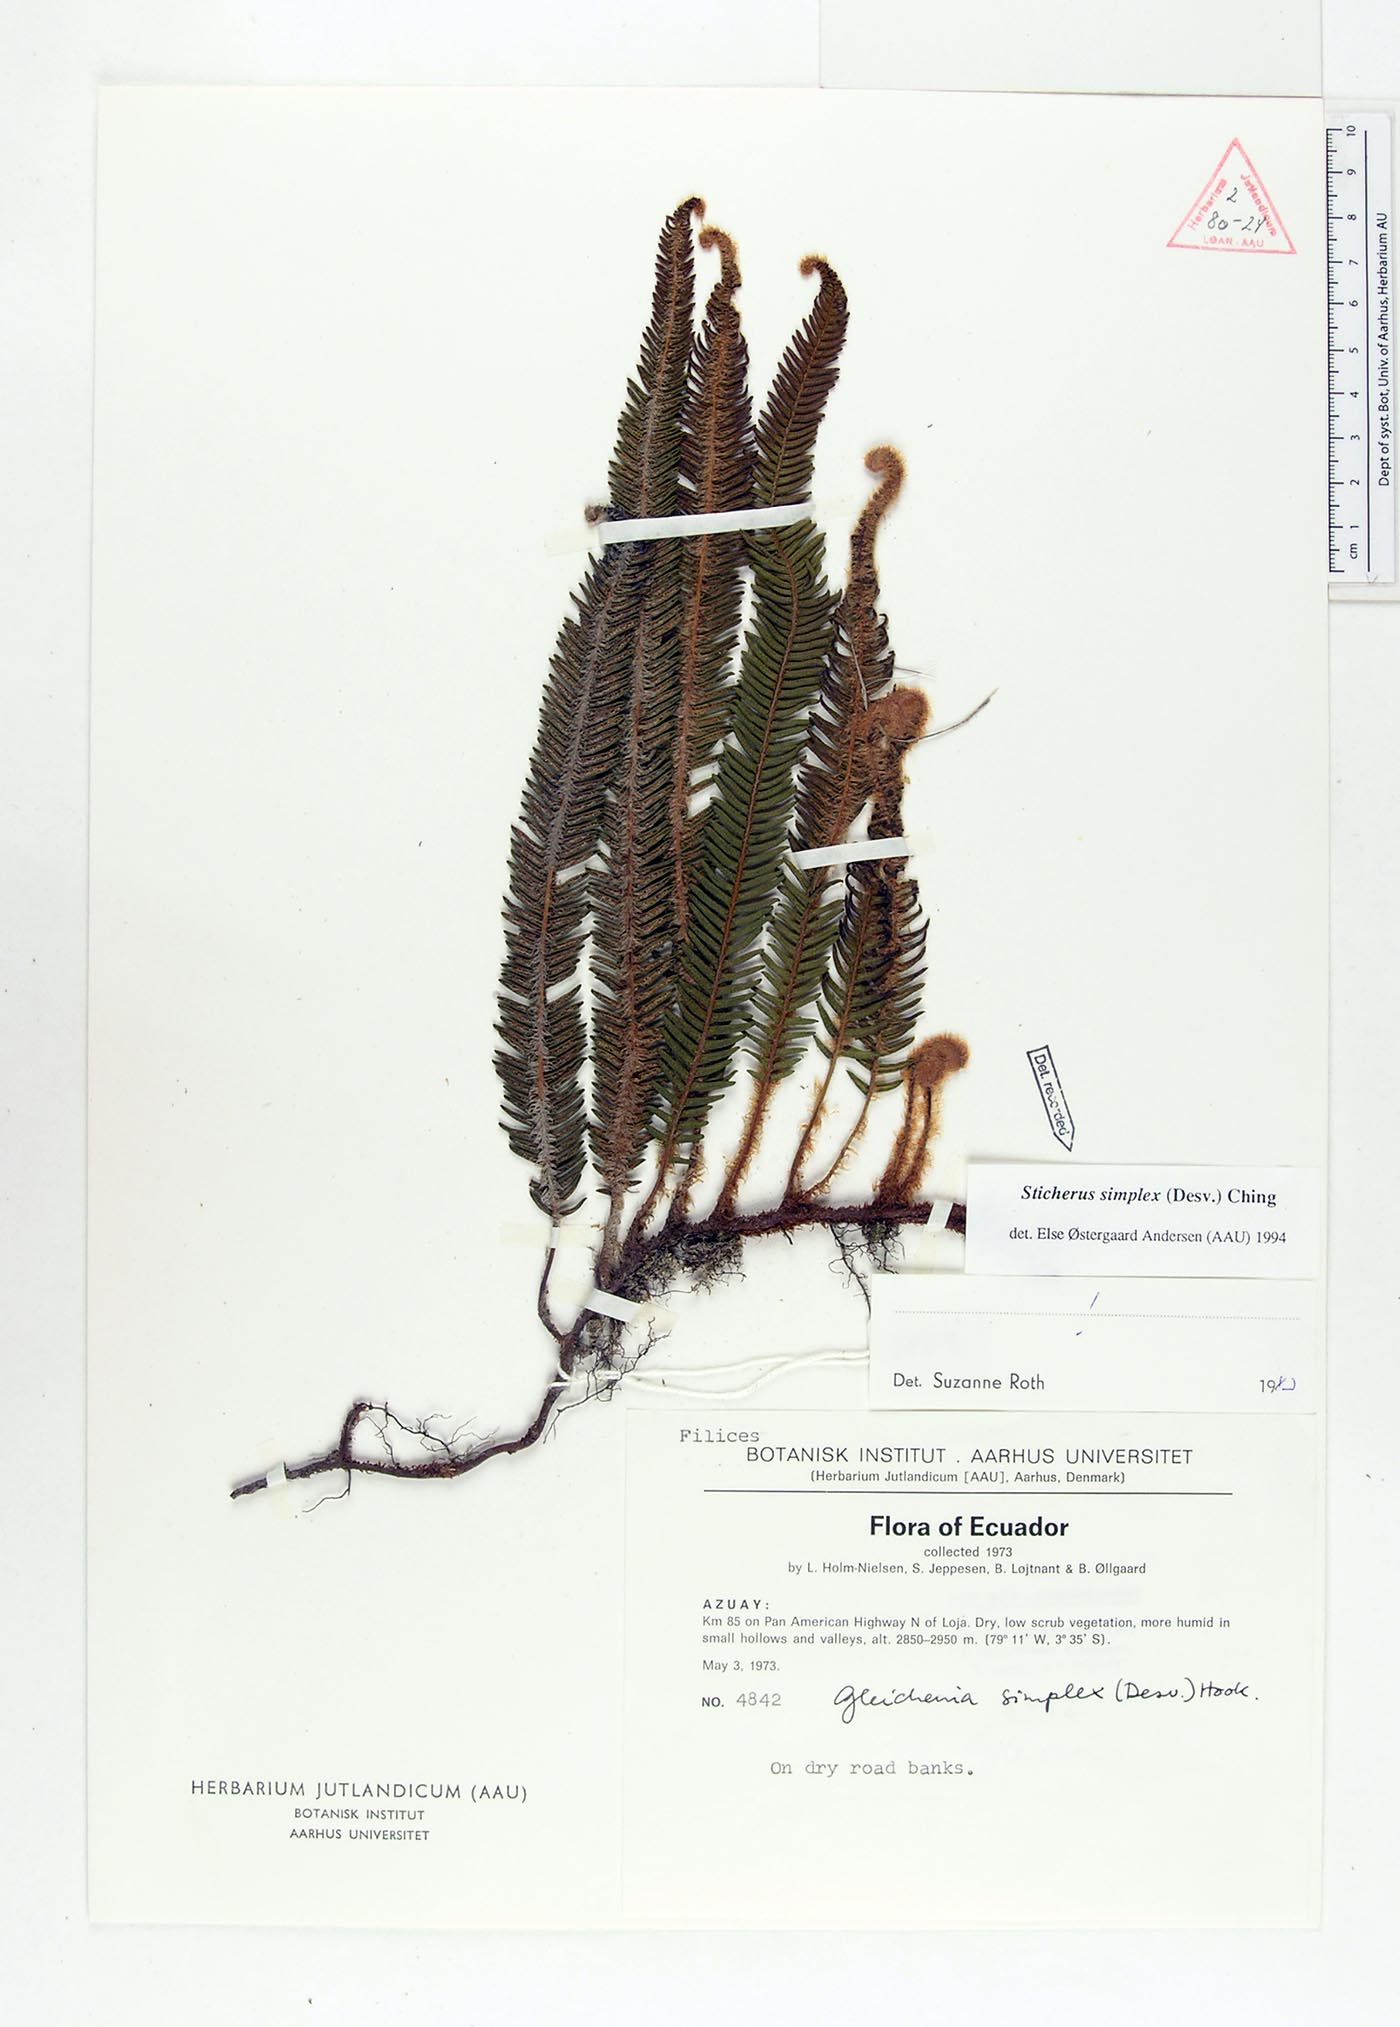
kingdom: Plantae
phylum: Tracheophyta
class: Polypodiopsida
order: Gleicheniales
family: Gleicheniaceae
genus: Sticherus
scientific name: Sticherus simplex
